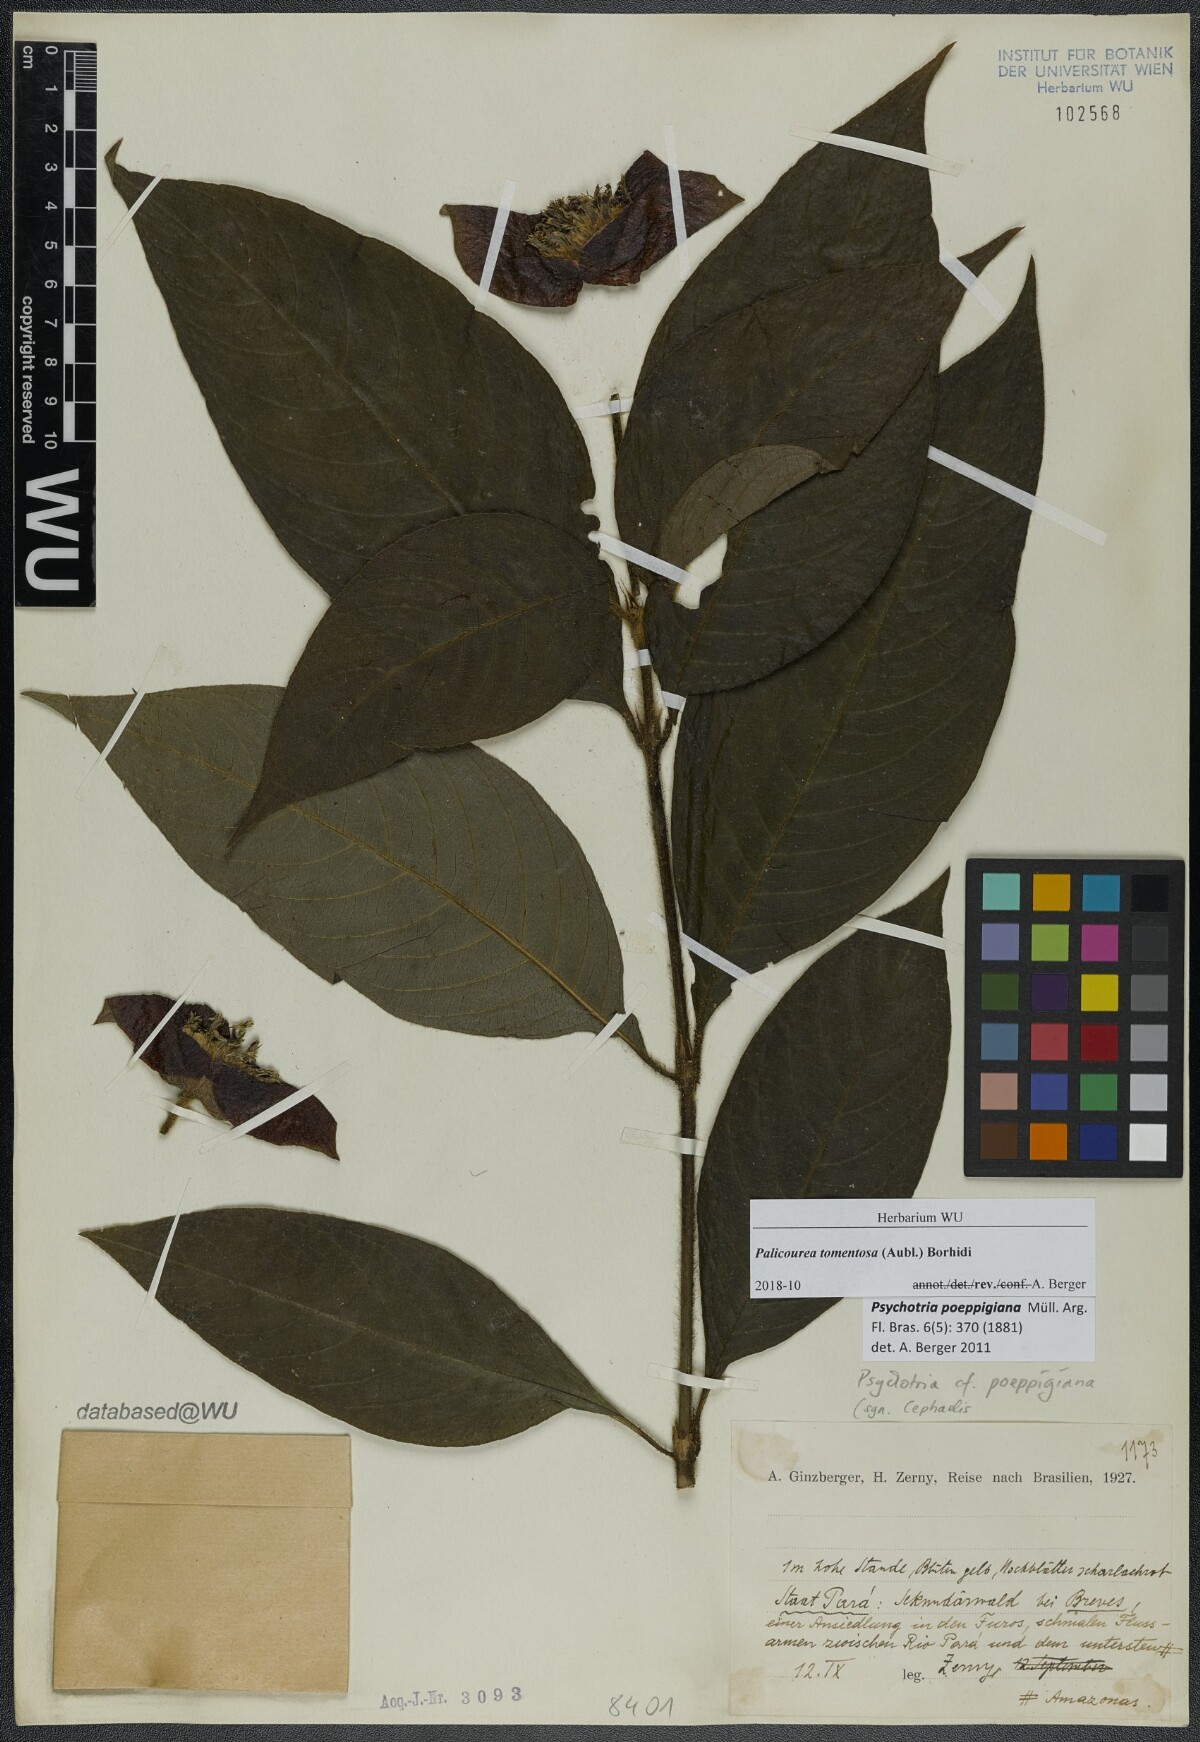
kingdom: Plantae
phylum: Tracheophyta
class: Magnoliopsida
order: Gentianales
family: Rubiaceae
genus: Palicourea
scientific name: Palicourea tomentosa
